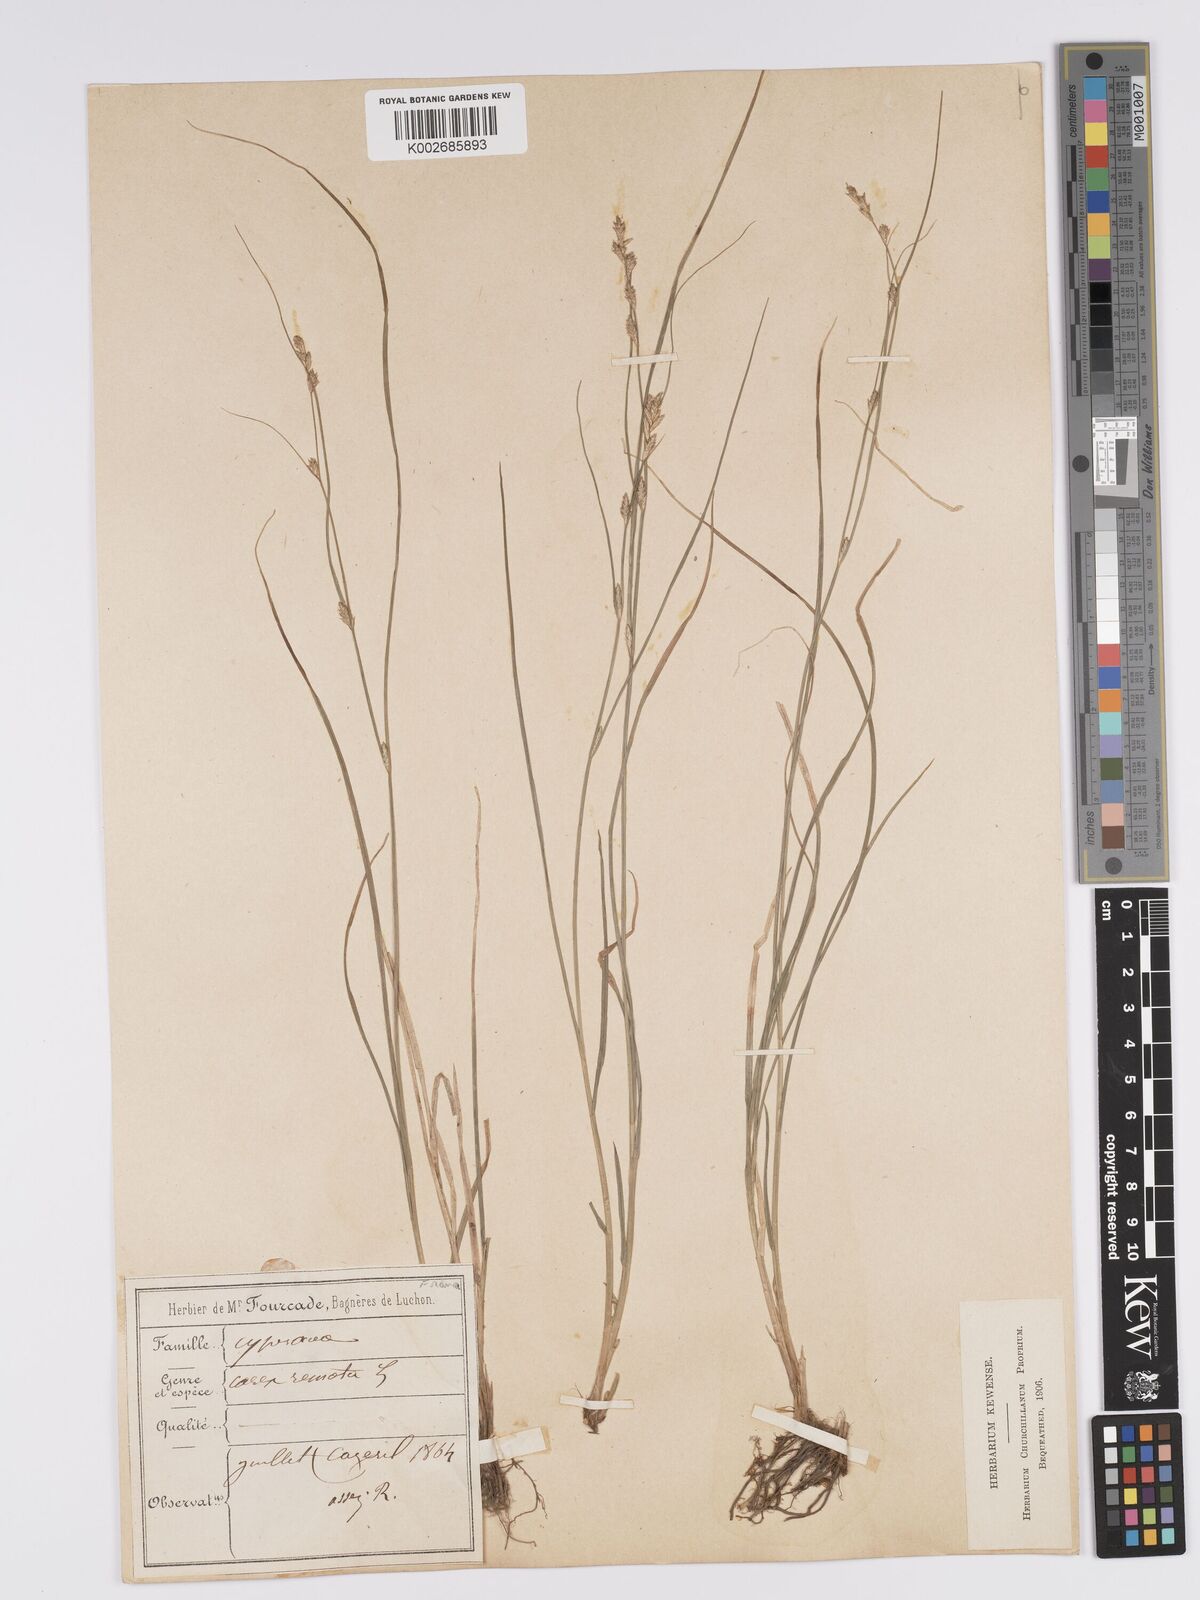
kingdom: Plantae
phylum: Tracheophyta
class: Liliopsida
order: Poales
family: Cyperaceae
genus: Carex
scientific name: Carex remota
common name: Remote sedge
